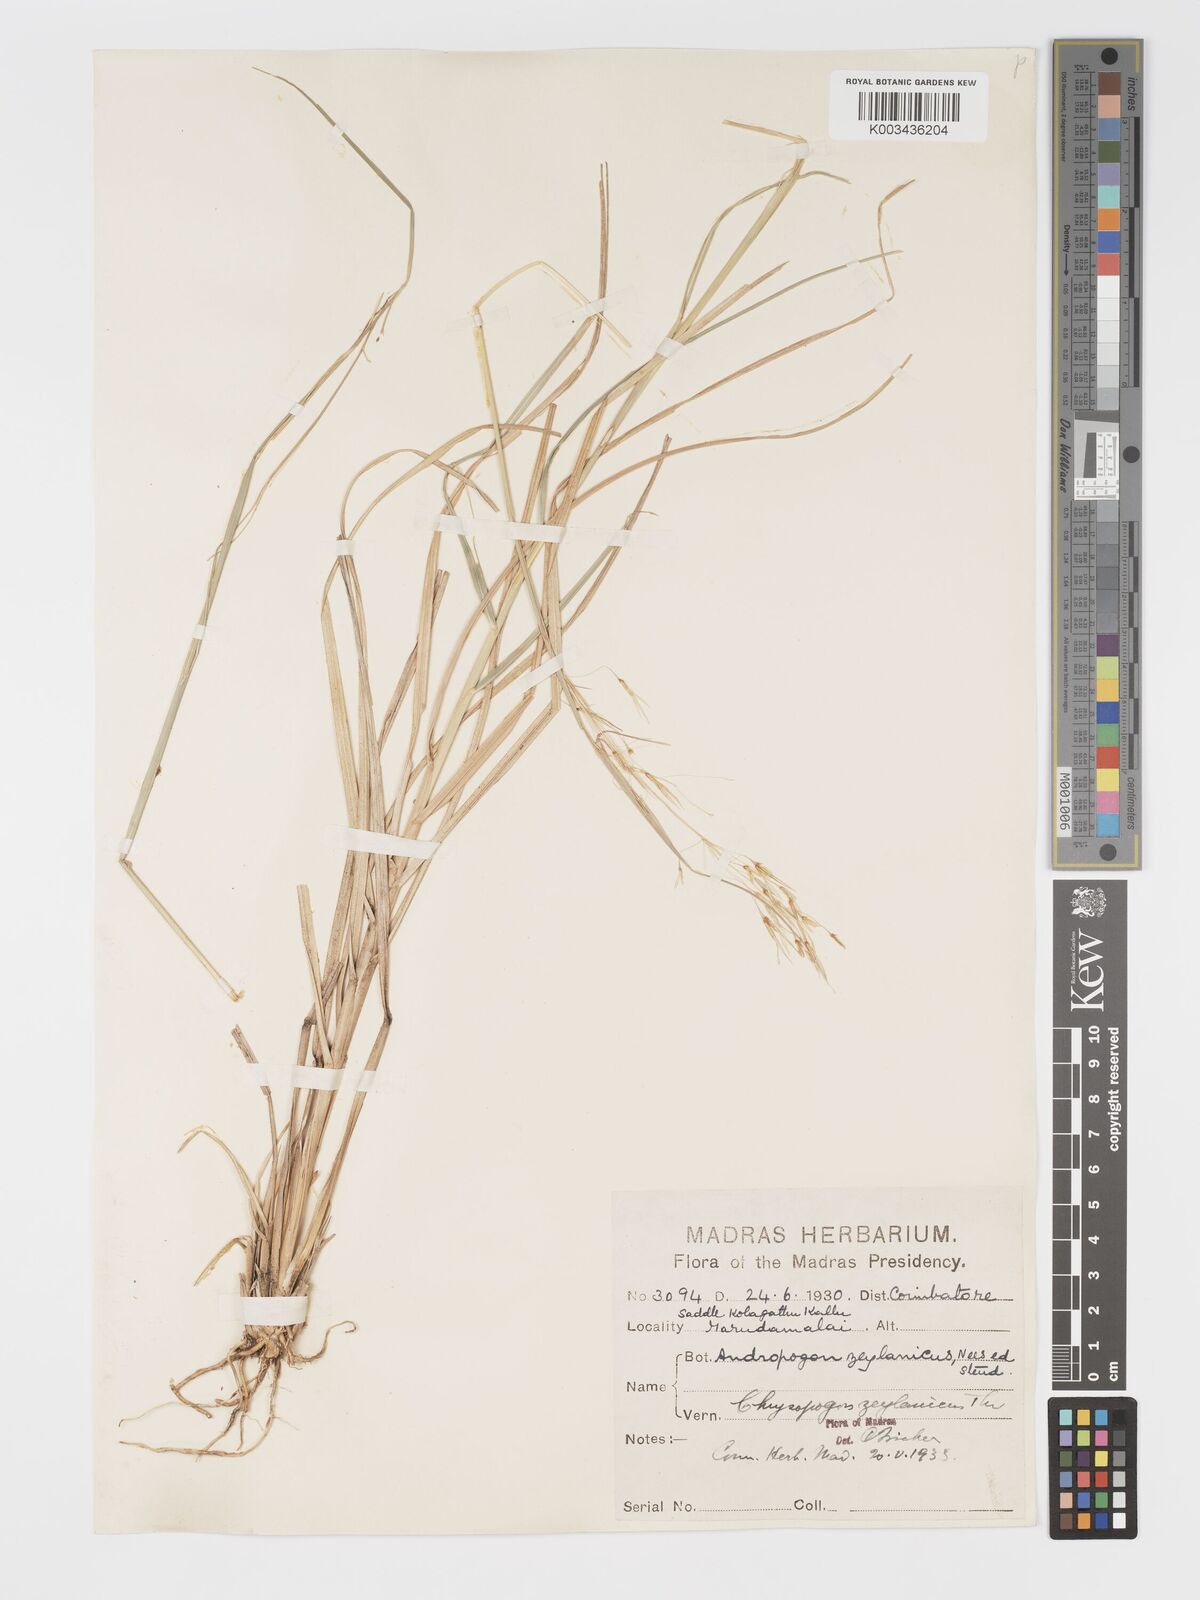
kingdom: Plantae
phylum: Tracheophyta
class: Liliopsida
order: Poales
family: Poaceae
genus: Chrysopogon
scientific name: Chrysopogon nodulibarbis
